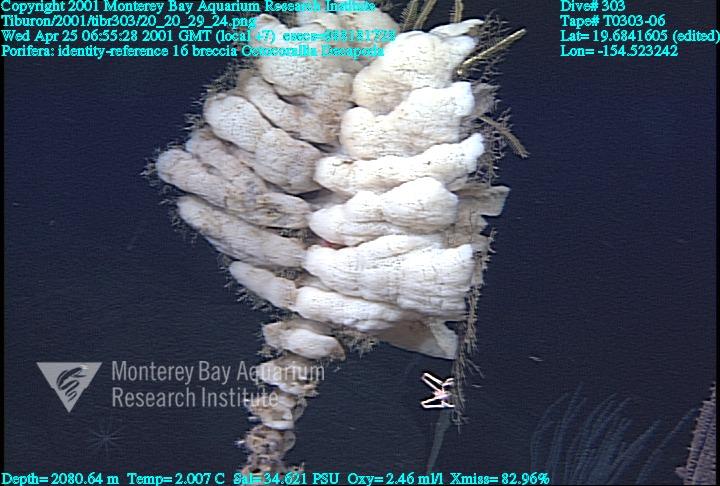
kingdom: Animalia
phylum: Porifera
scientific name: Porifera
